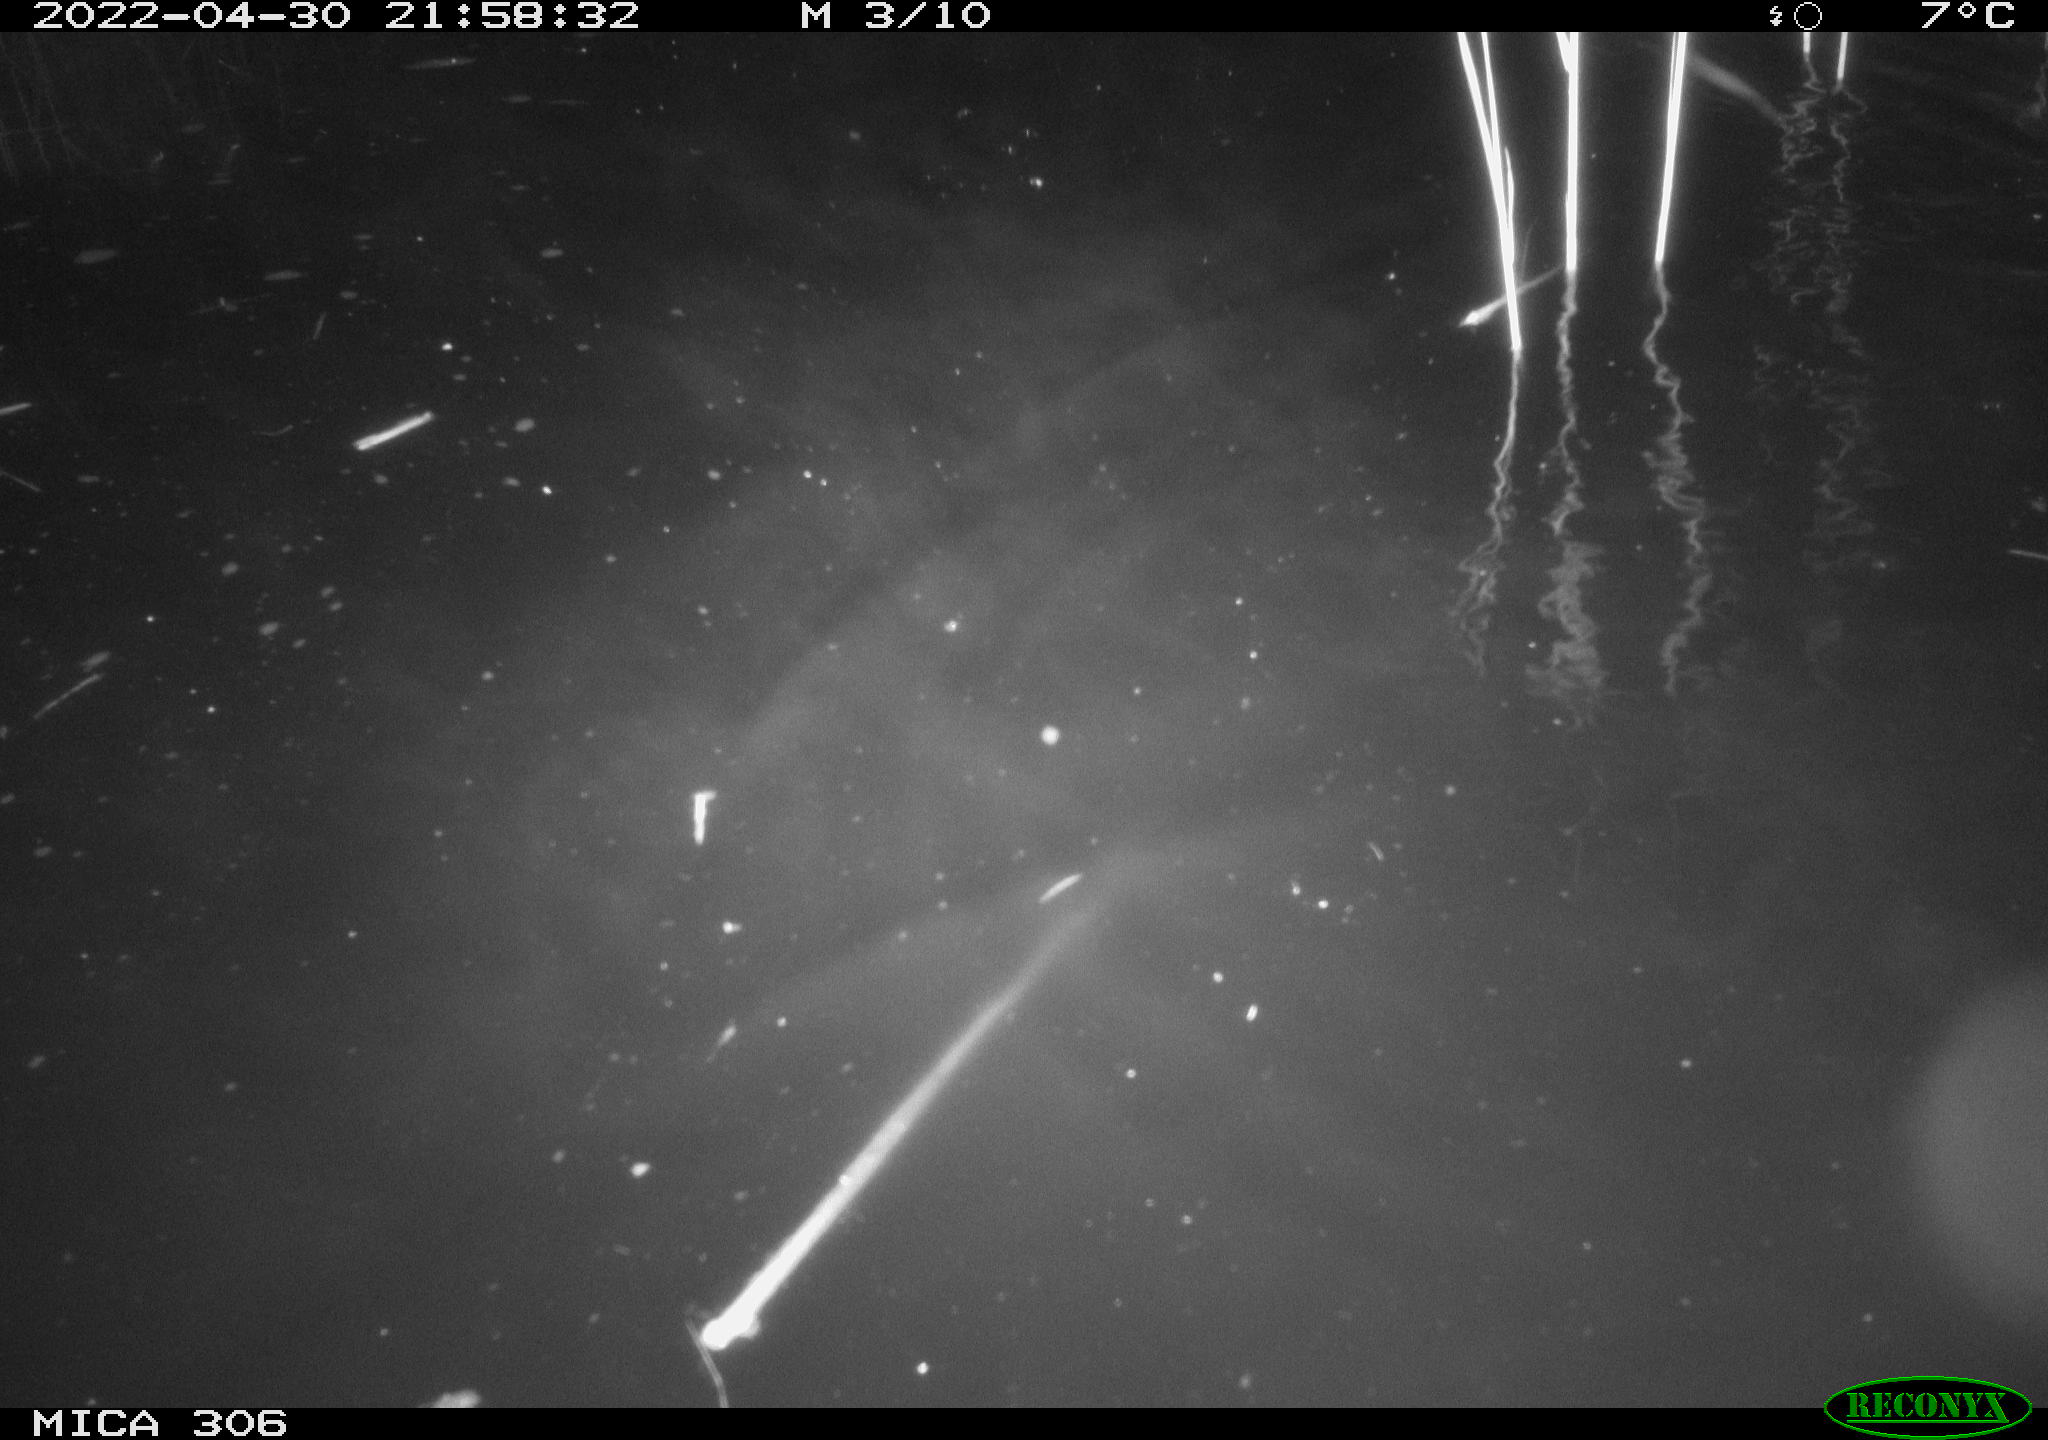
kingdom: Animalia
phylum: Chordata
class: Mammalia
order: Rodentia
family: Cricetidae
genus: Ondatra
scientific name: Ondatra zibethicus
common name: Muskrat
